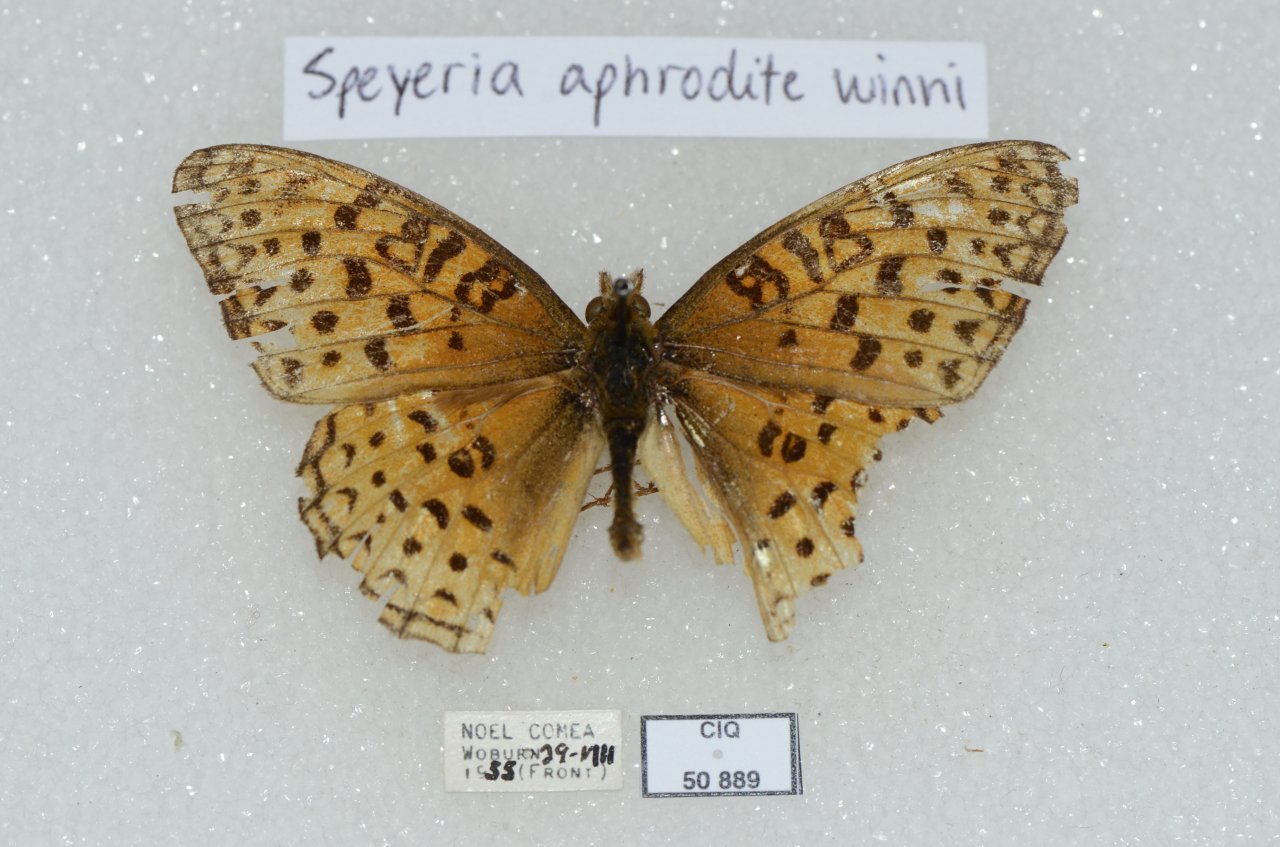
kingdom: Animalia
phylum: Arthropoda
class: Insecta
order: Lepidoptera
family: Nymphalidae
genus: Speyeria
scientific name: Speyeria aphrodite
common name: Aphrodite Fritillary
